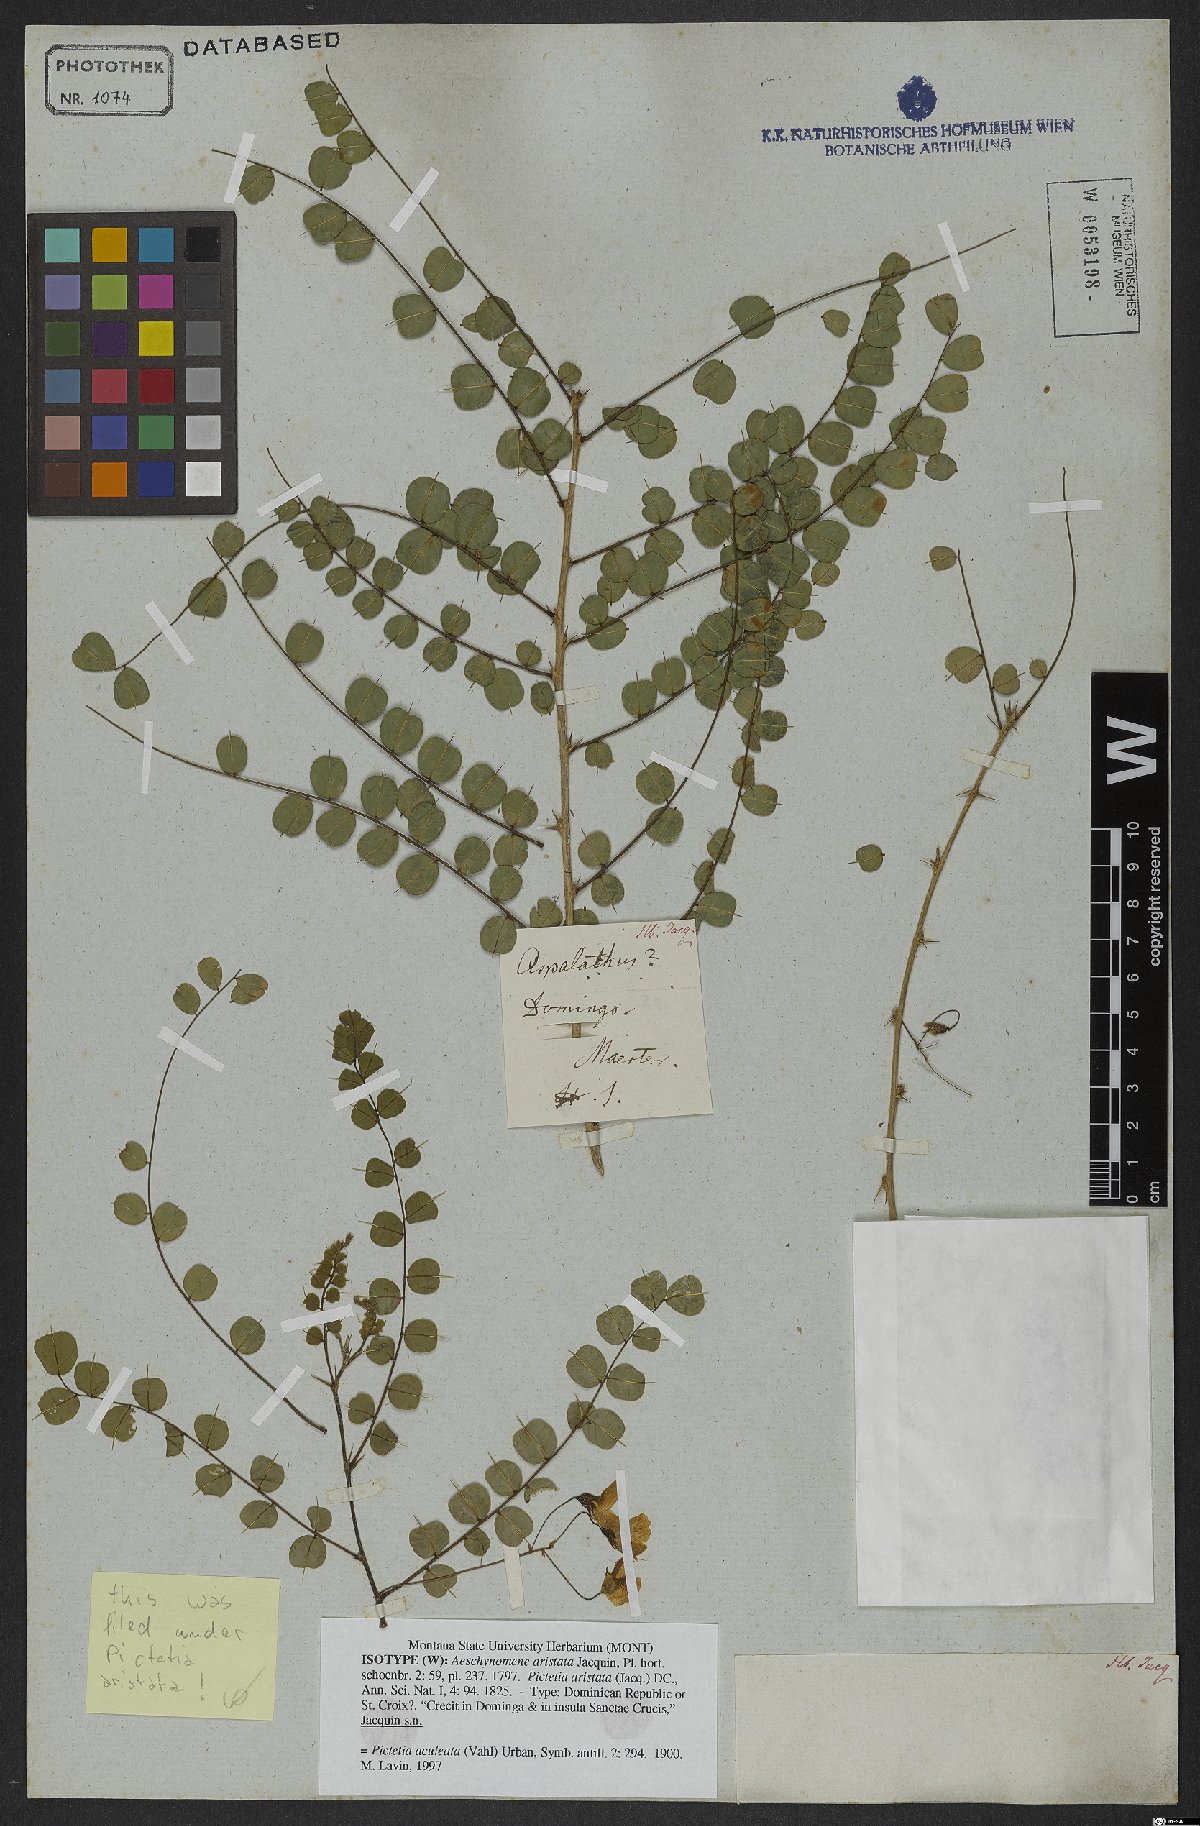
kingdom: Plantae
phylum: Tracheophyta
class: Magnoliopsida
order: Fabales
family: Fabaceae
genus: Pictetia
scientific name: Pictetia aculeata
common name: Fustic
